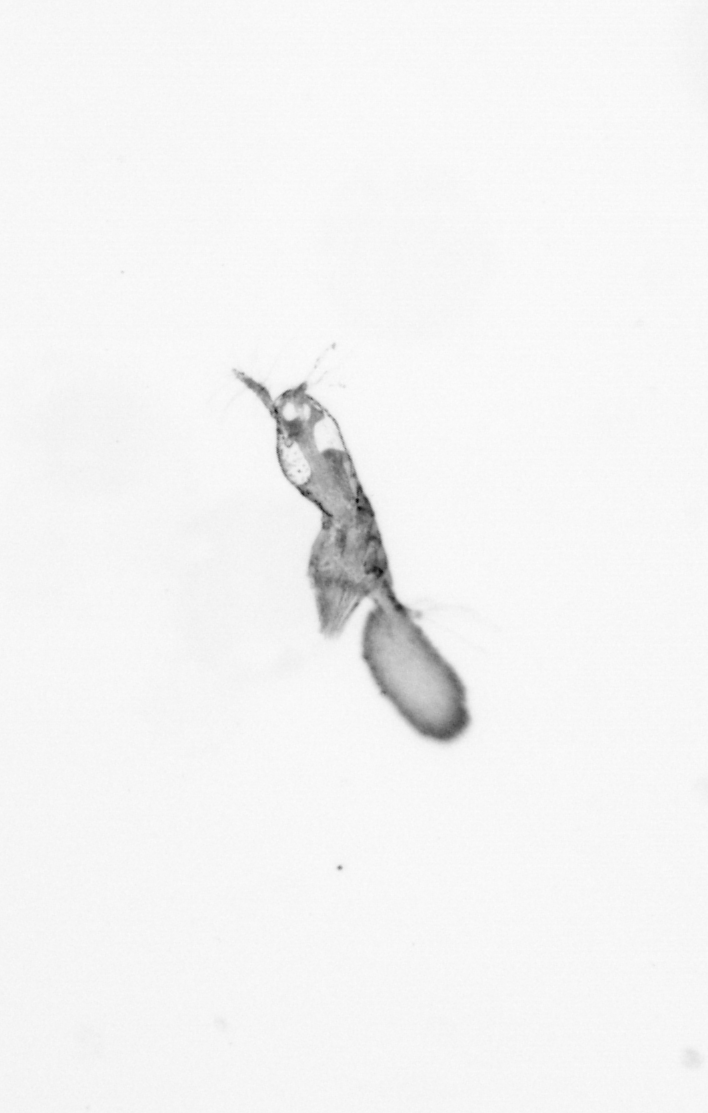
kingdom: Animalia
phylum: Arthropoda
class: Copepoda
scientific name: Copepoda
